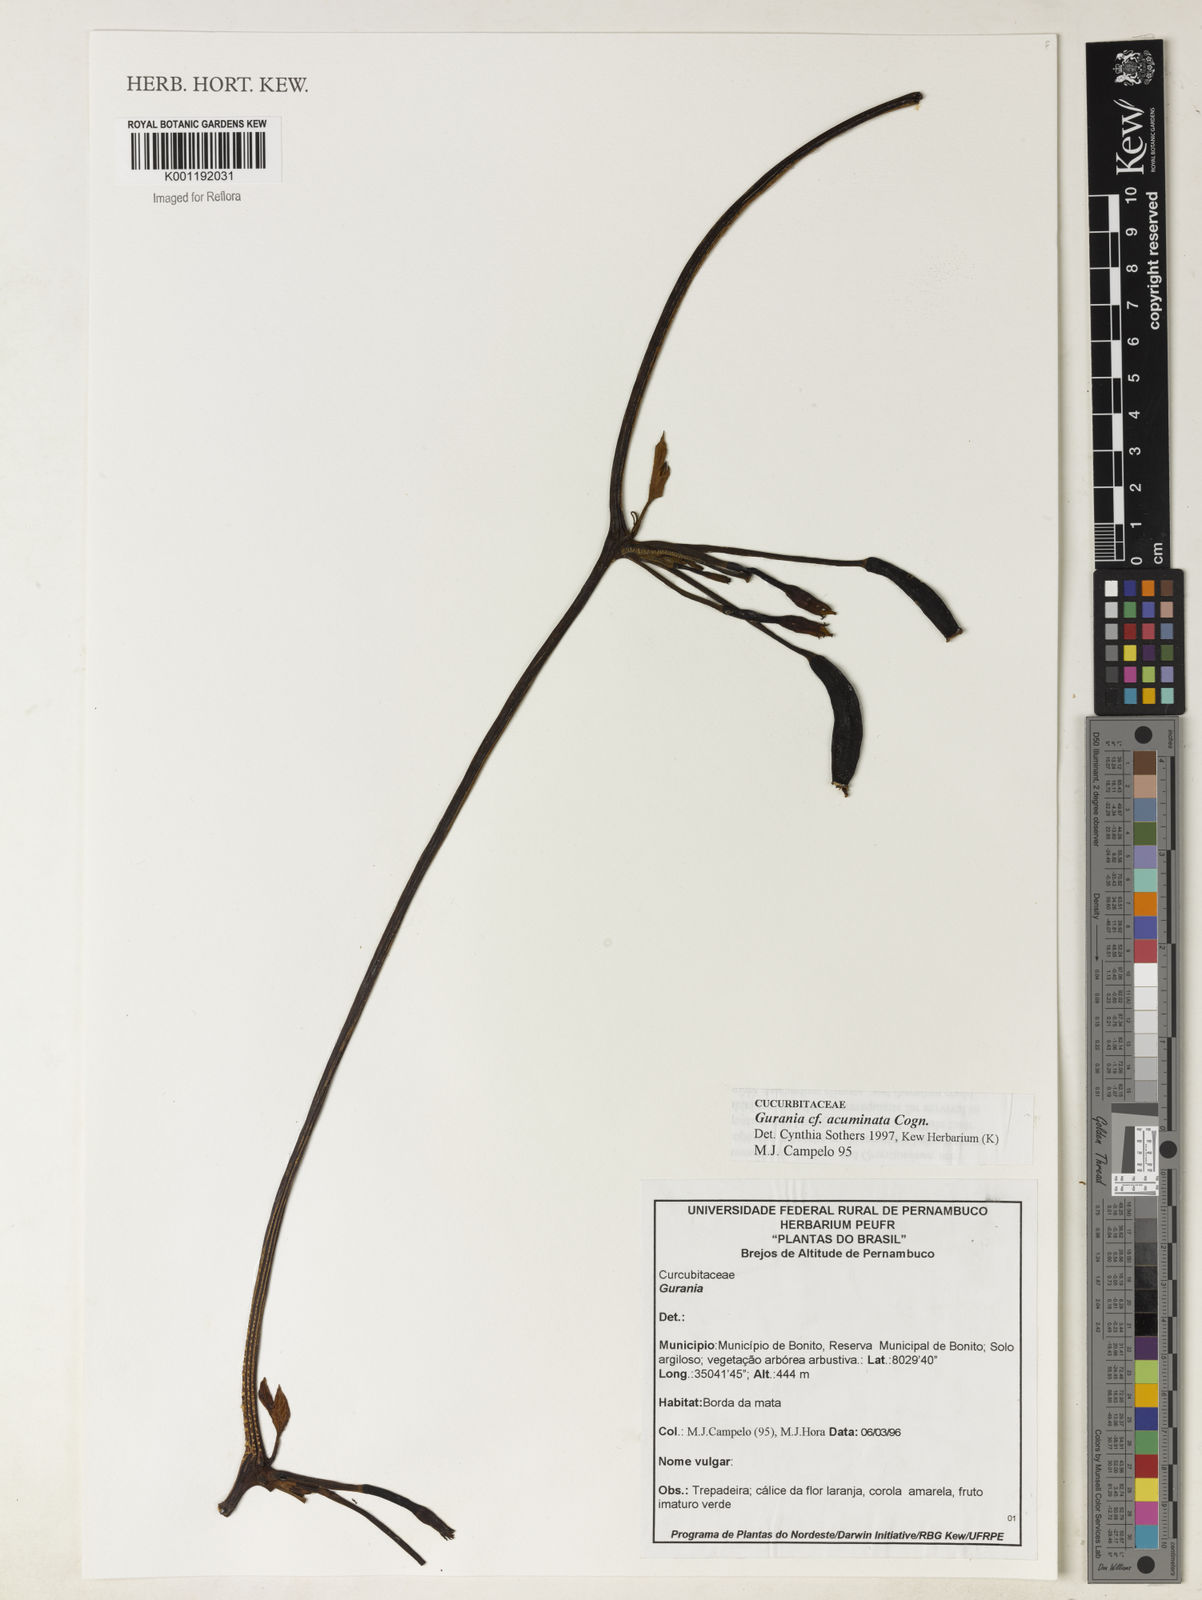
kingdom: Plantae
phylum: Tracheophyta
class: Magnoliopsida
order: Cucurbitales
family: Cucurbitaceae
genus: Gurania
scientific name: Gurania acuminata
